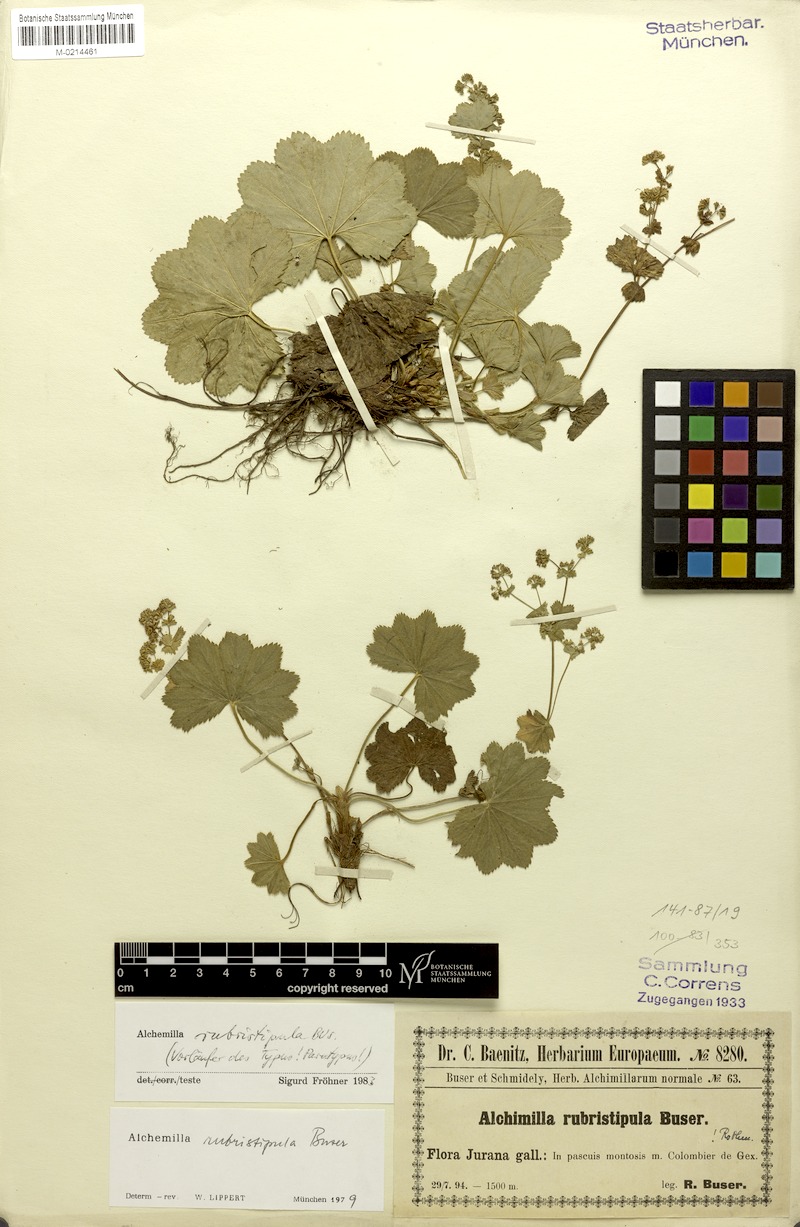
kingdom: Plantae
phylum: Tracheophyta
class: Magnoliopsida
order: Rosales
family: Rosaceae
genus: Alchemilla
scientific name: Alchemilla rubristipula
